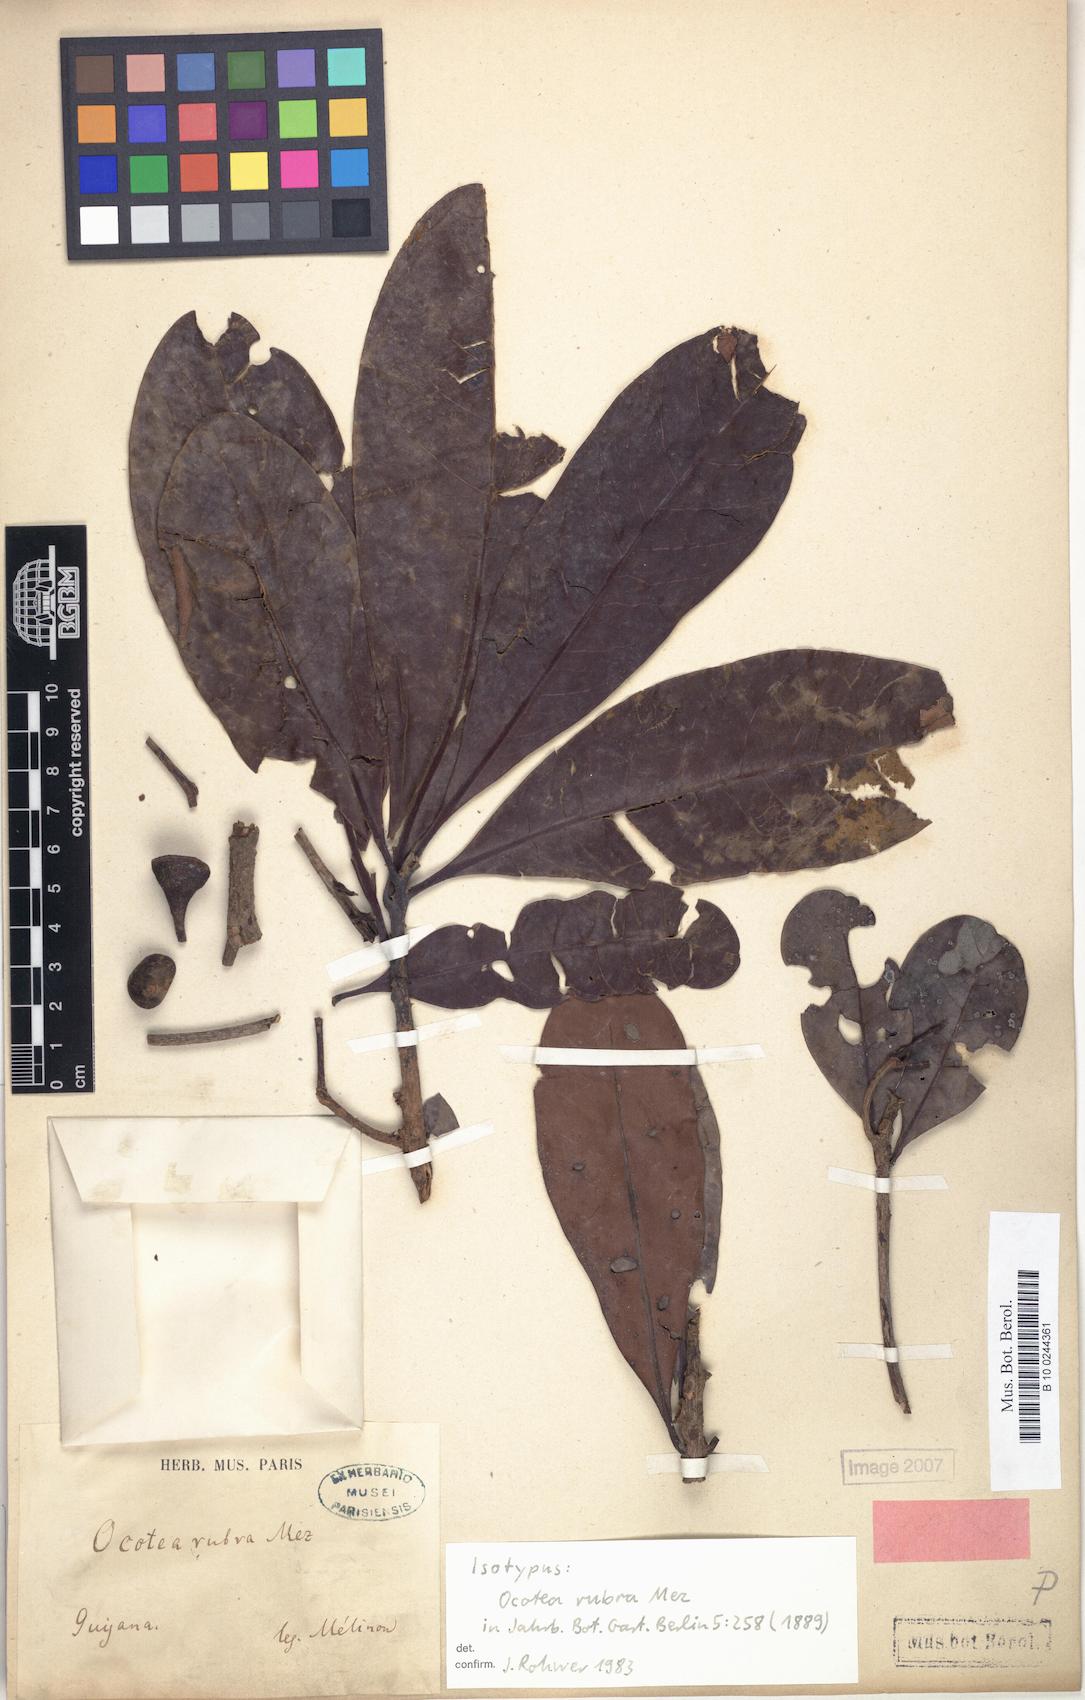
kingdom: Plantae
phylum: Tracheophyta
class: Magnoliopsida
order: Laurales
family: Lauraceae
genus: Sextonia
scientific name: Sextonia rubra
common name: Red louro
